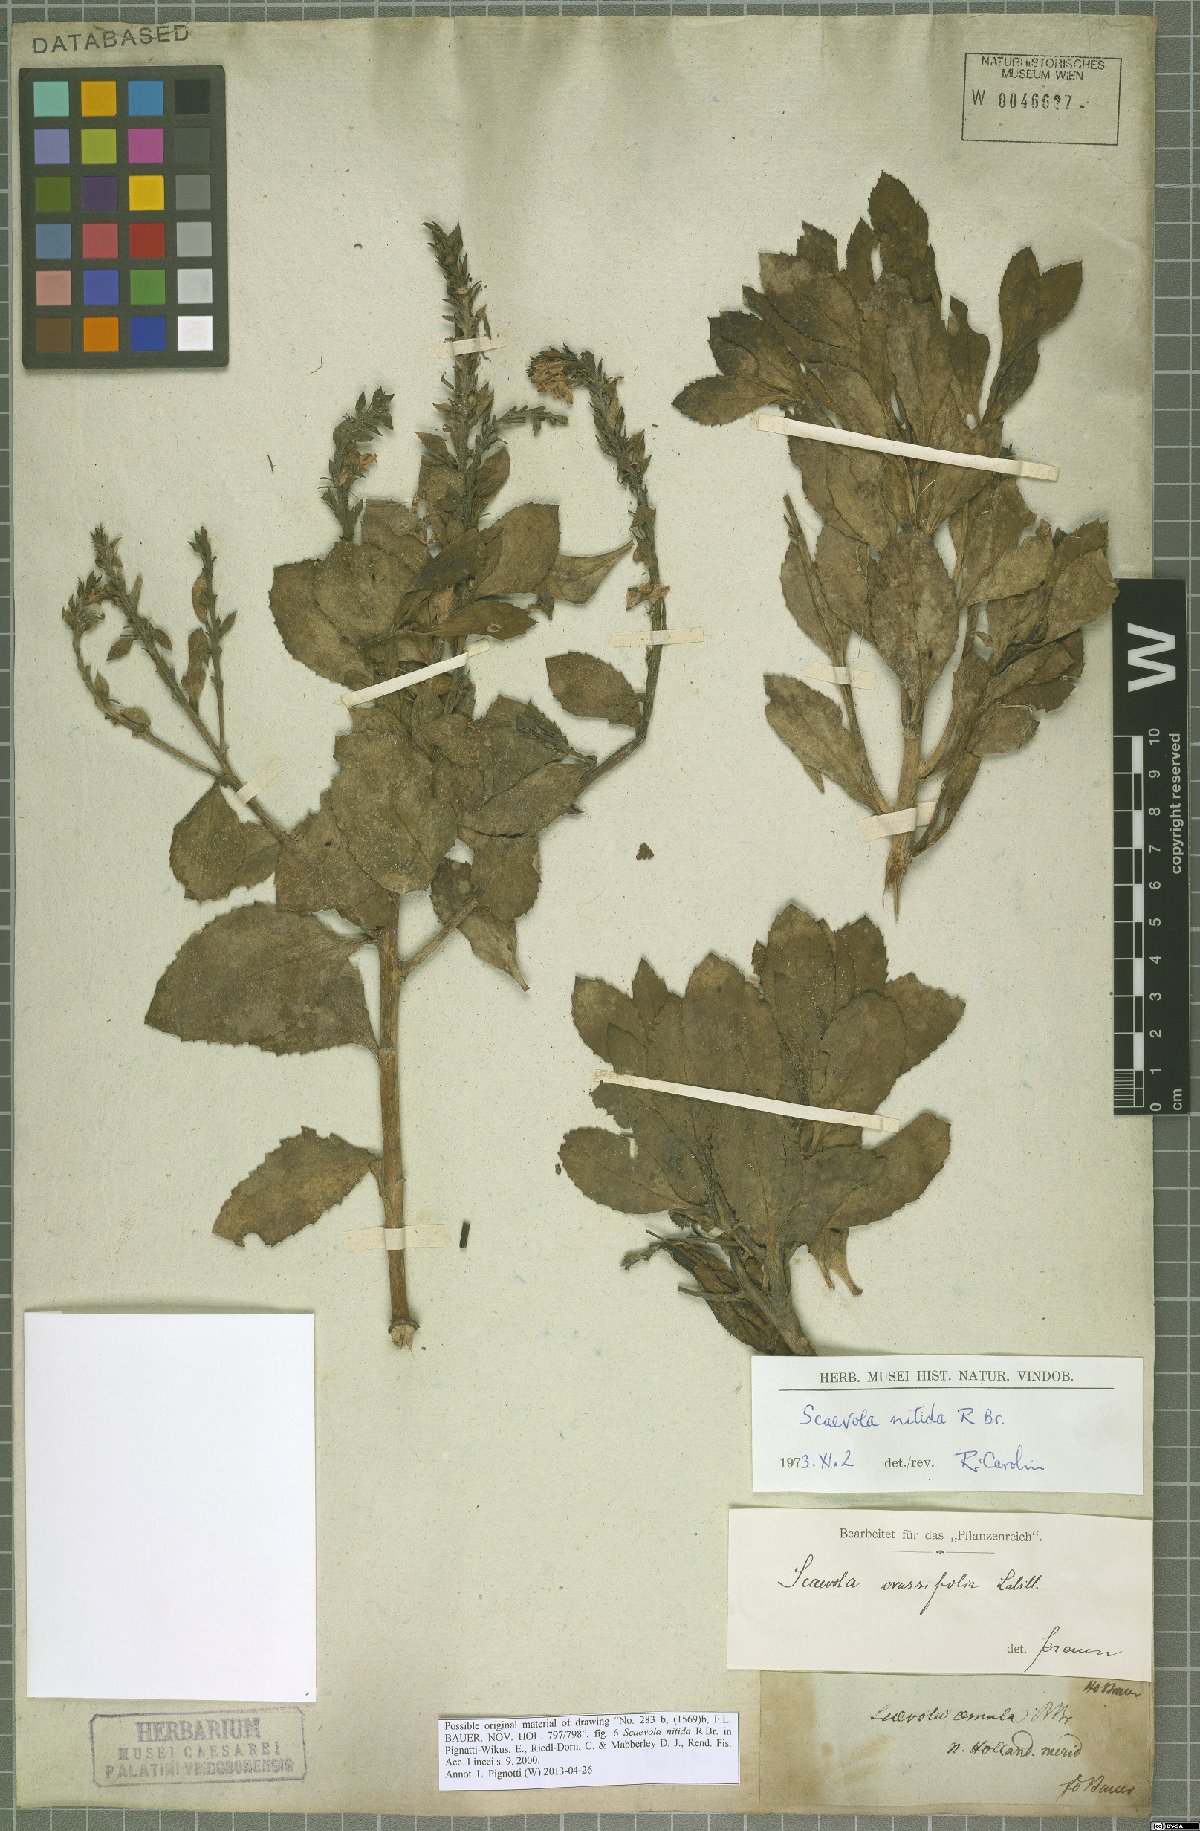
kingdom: Plantae
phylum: Tracheophyta
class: Magnoliopsida
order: Asterales
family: Goodeniaceae
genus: Scaevola
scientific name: Scaevola nitida
